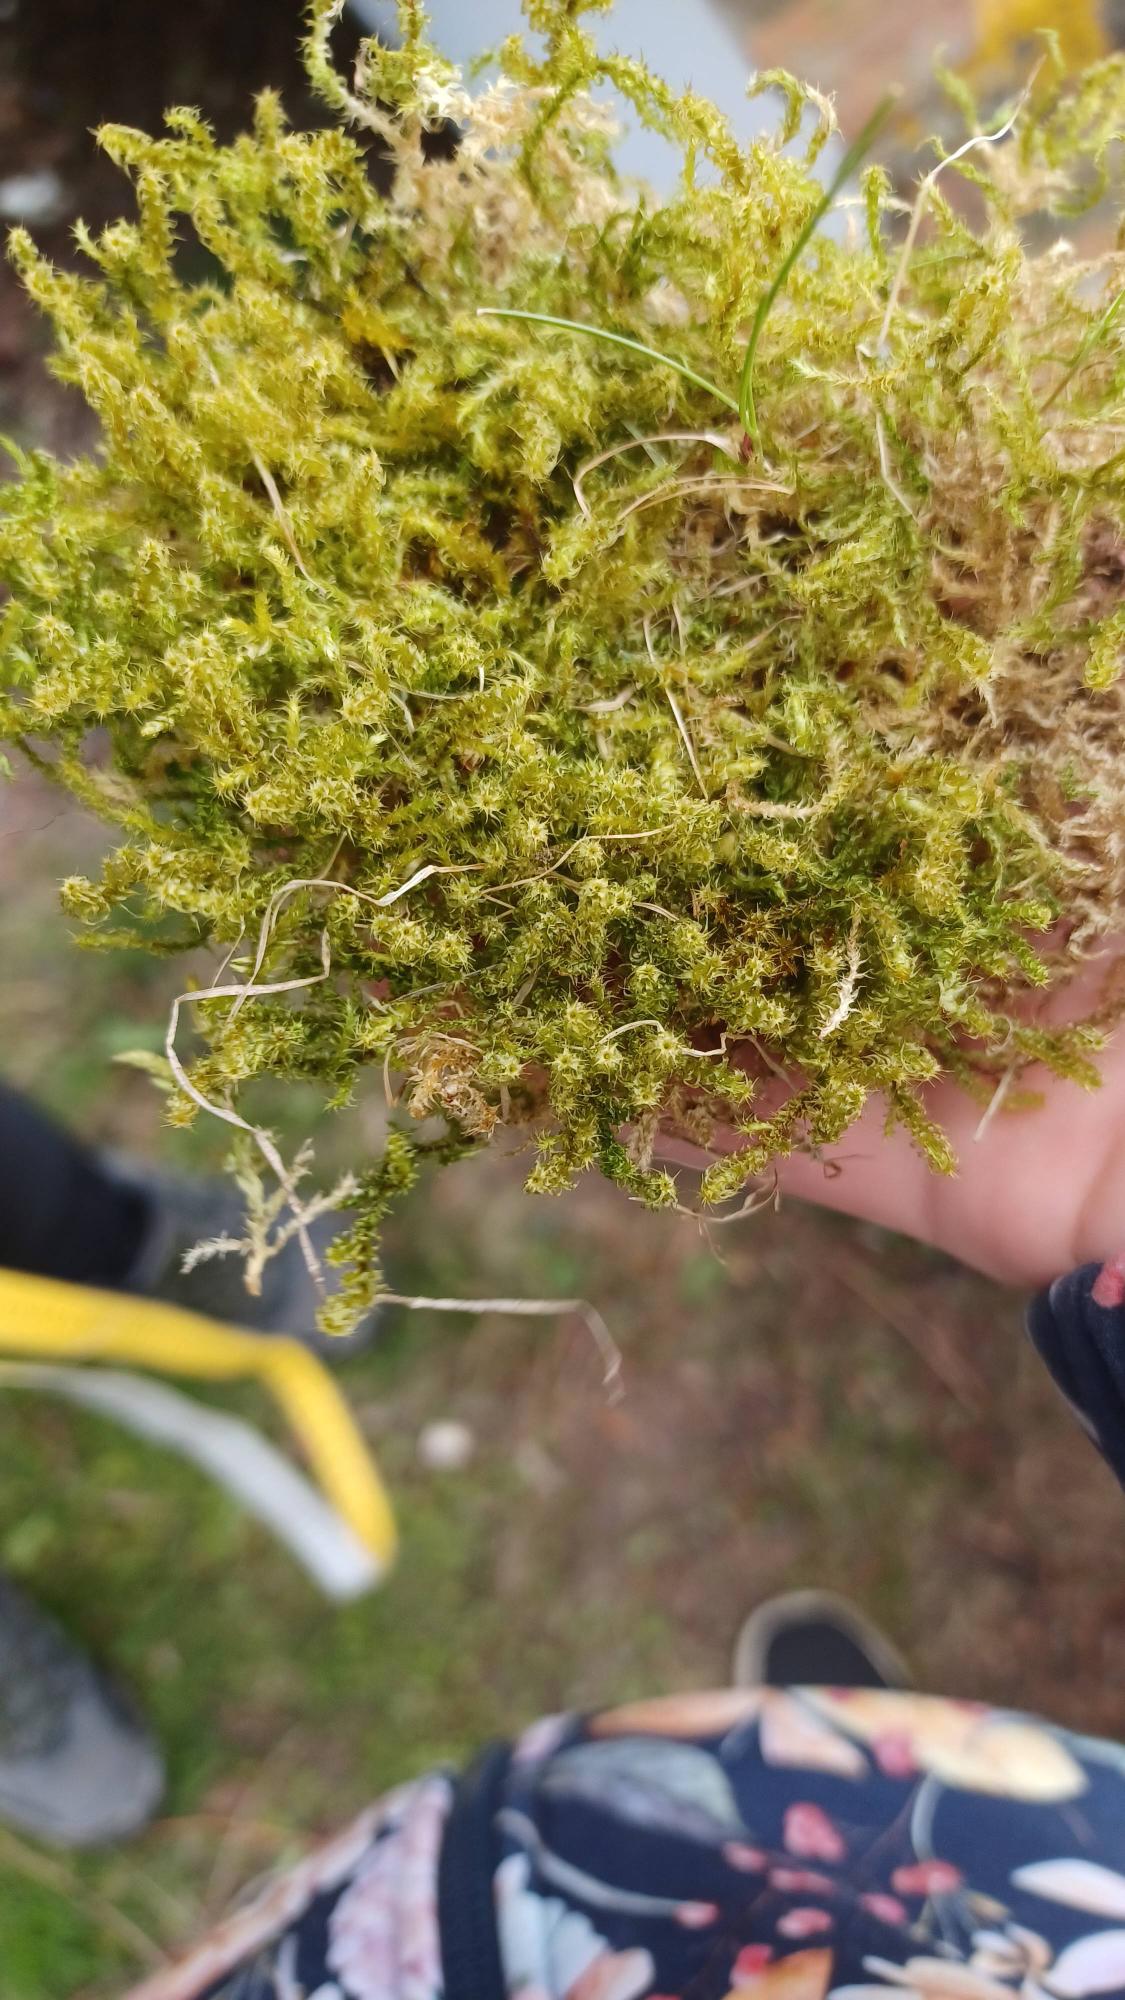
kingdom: Plantae
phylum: Bryophyta
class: Bryopsida
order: Hypnales
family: Hylocomiaceae
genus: Rhytidiadelphus
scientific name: Rhytidiadelphus squarrosus
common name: Plæne-kransemos
